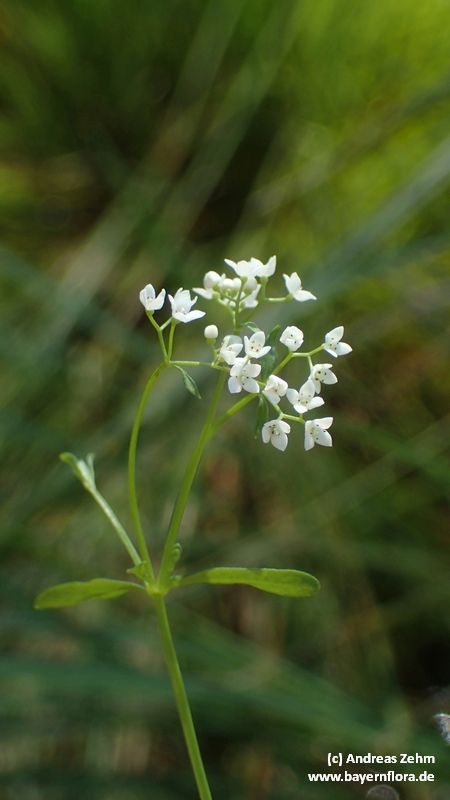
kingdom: Plantae
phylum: Tracheophyta
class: Magnoliopsida
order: Gentianales
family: Rubiaceae
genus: Galium
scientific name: Galium palustre
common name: Common marsh-bedstraw
